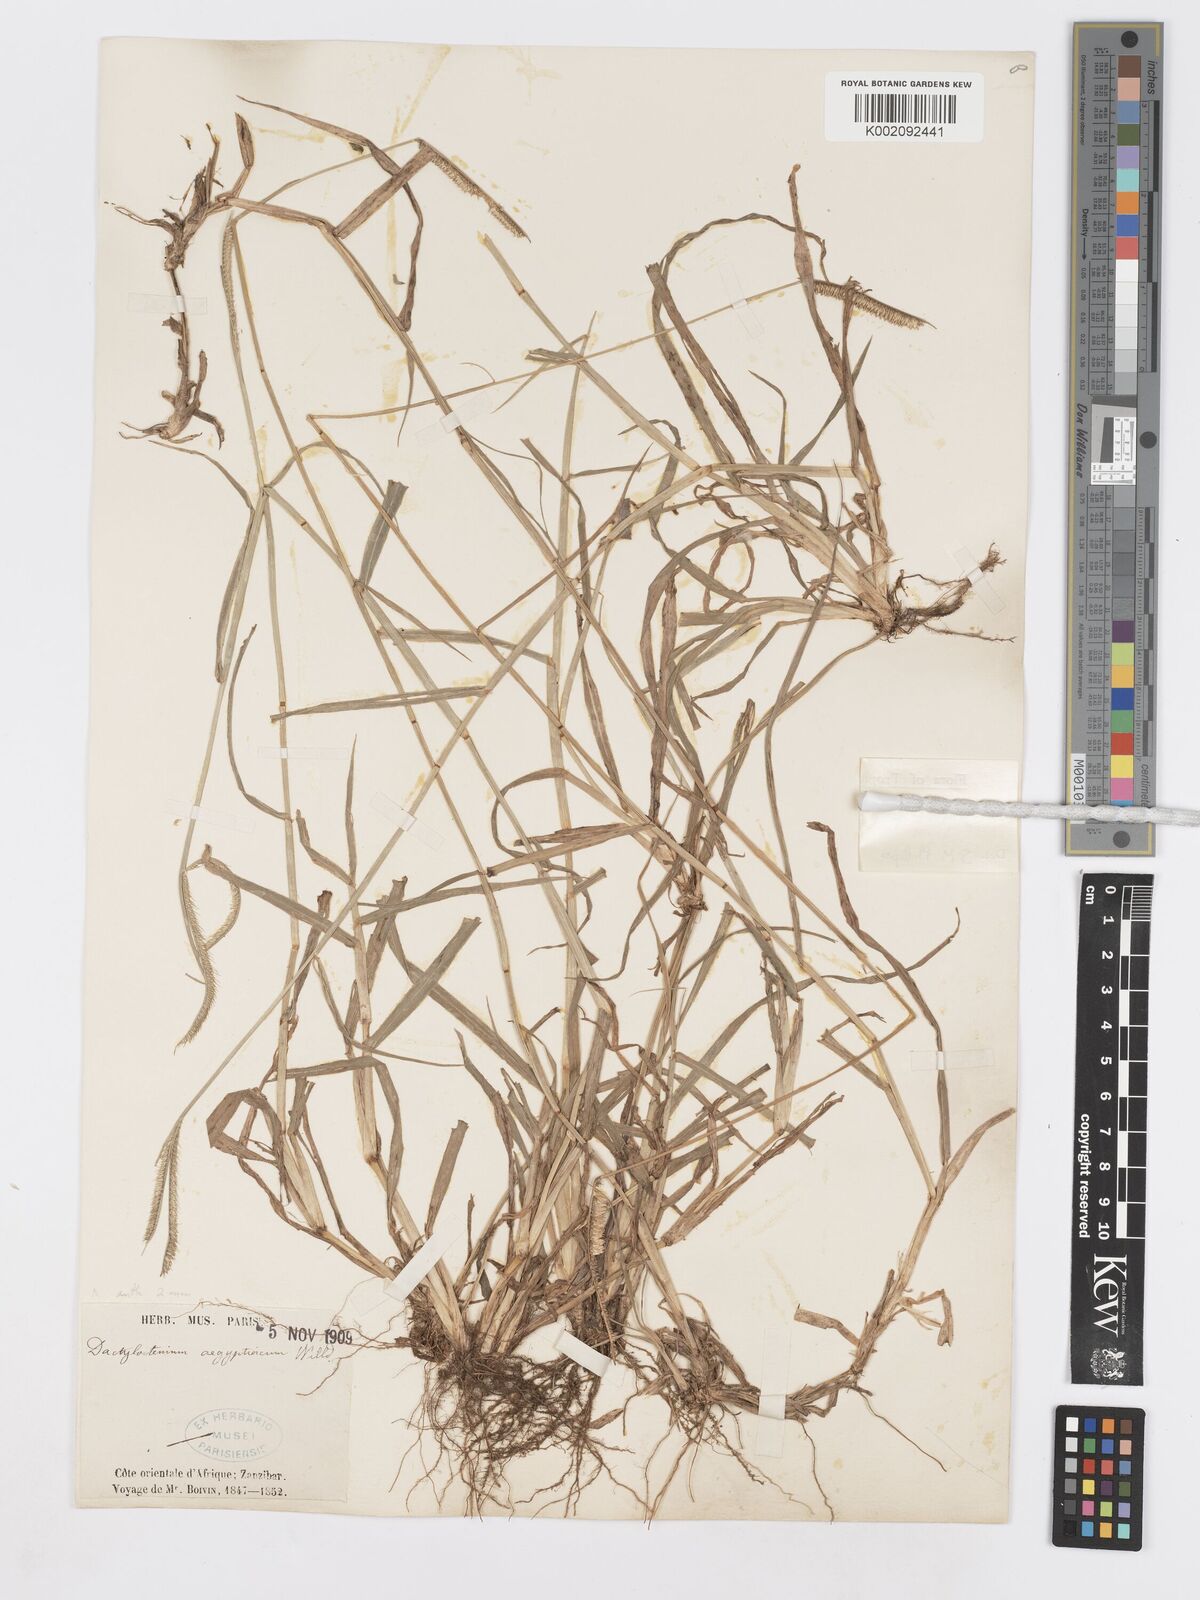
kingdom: Plantae
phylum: Tracheophyta
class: Liliopsida
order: Poales
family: Poaceae
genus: Dactyloctenium
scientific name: Dactyloctenium geminatum
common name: Crowsfoot grass
